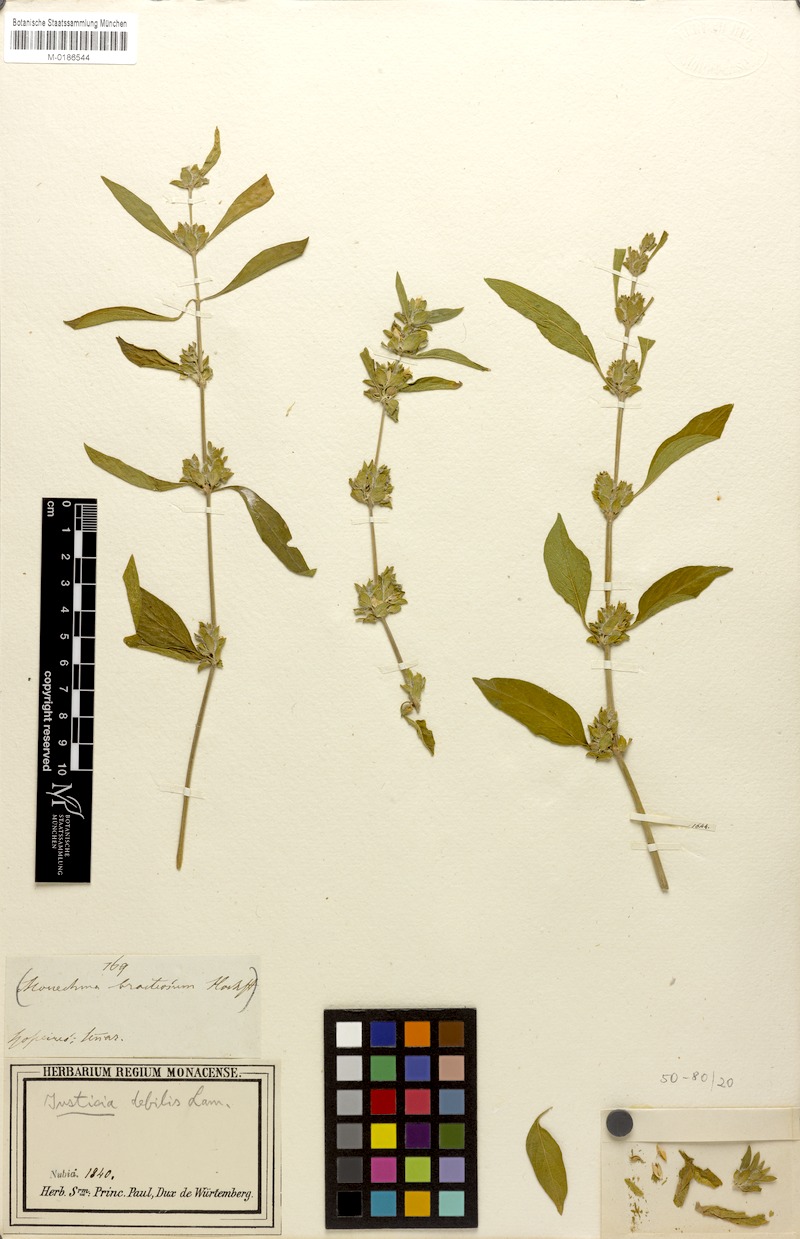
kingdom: Plantae
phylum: Tracheophyta
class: Magnoliopsida
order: Lamiales
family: Acanthaceae
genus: Monechma
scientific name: Monechma debile
